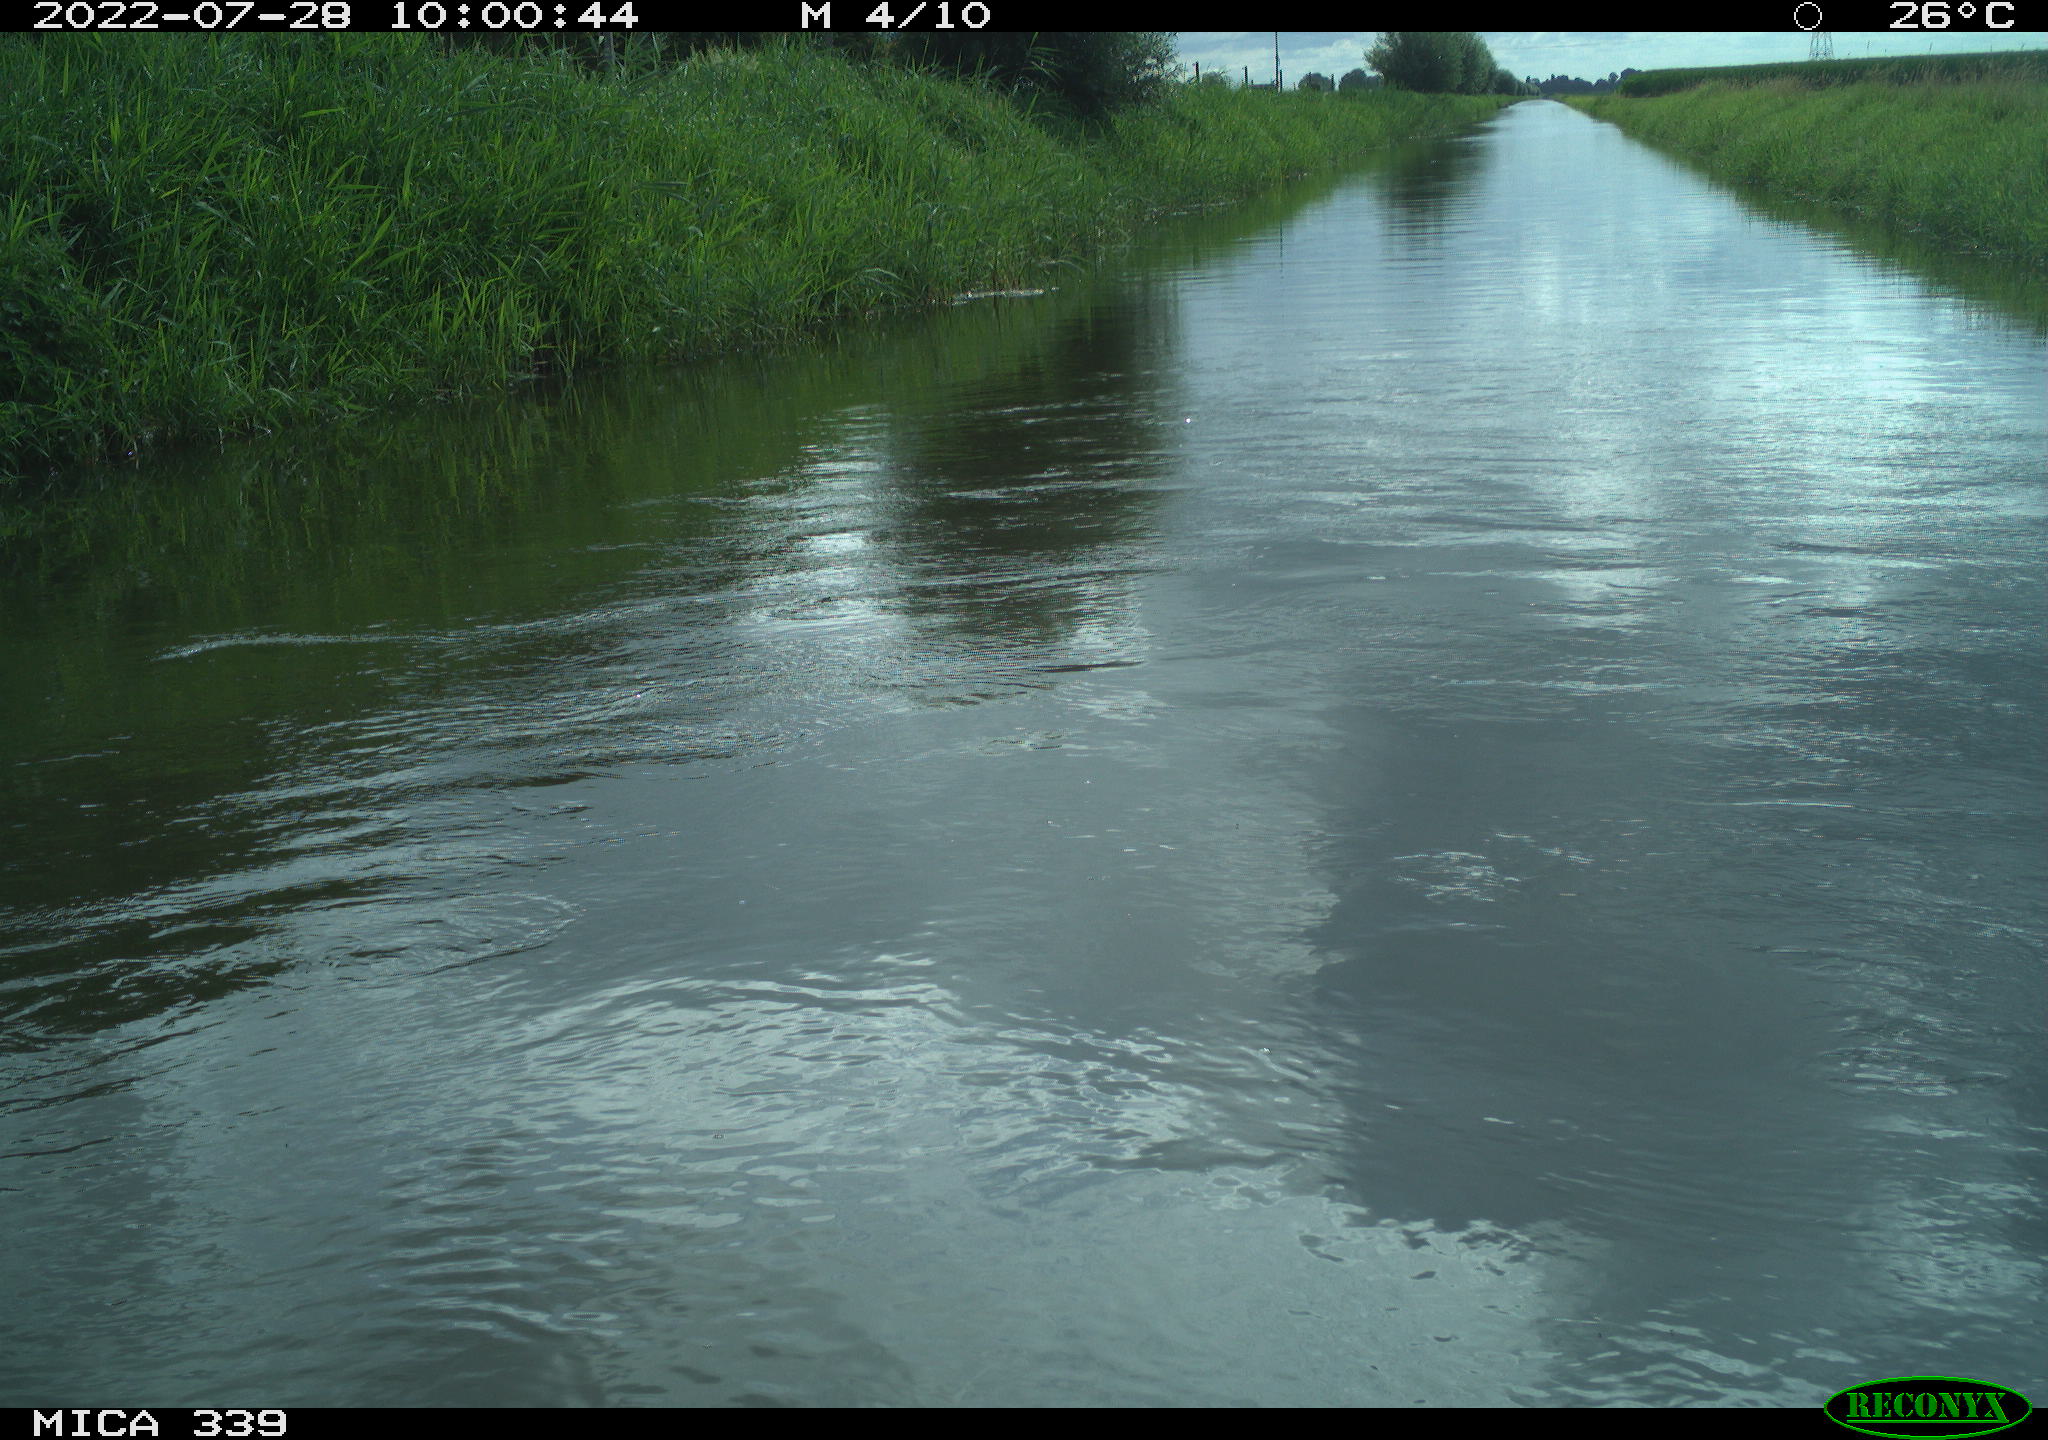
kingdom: Animalia
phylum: Chordata
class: Aves
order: Pelecaniformes
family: Ardeidae
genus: Ardea
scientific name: Ardea
